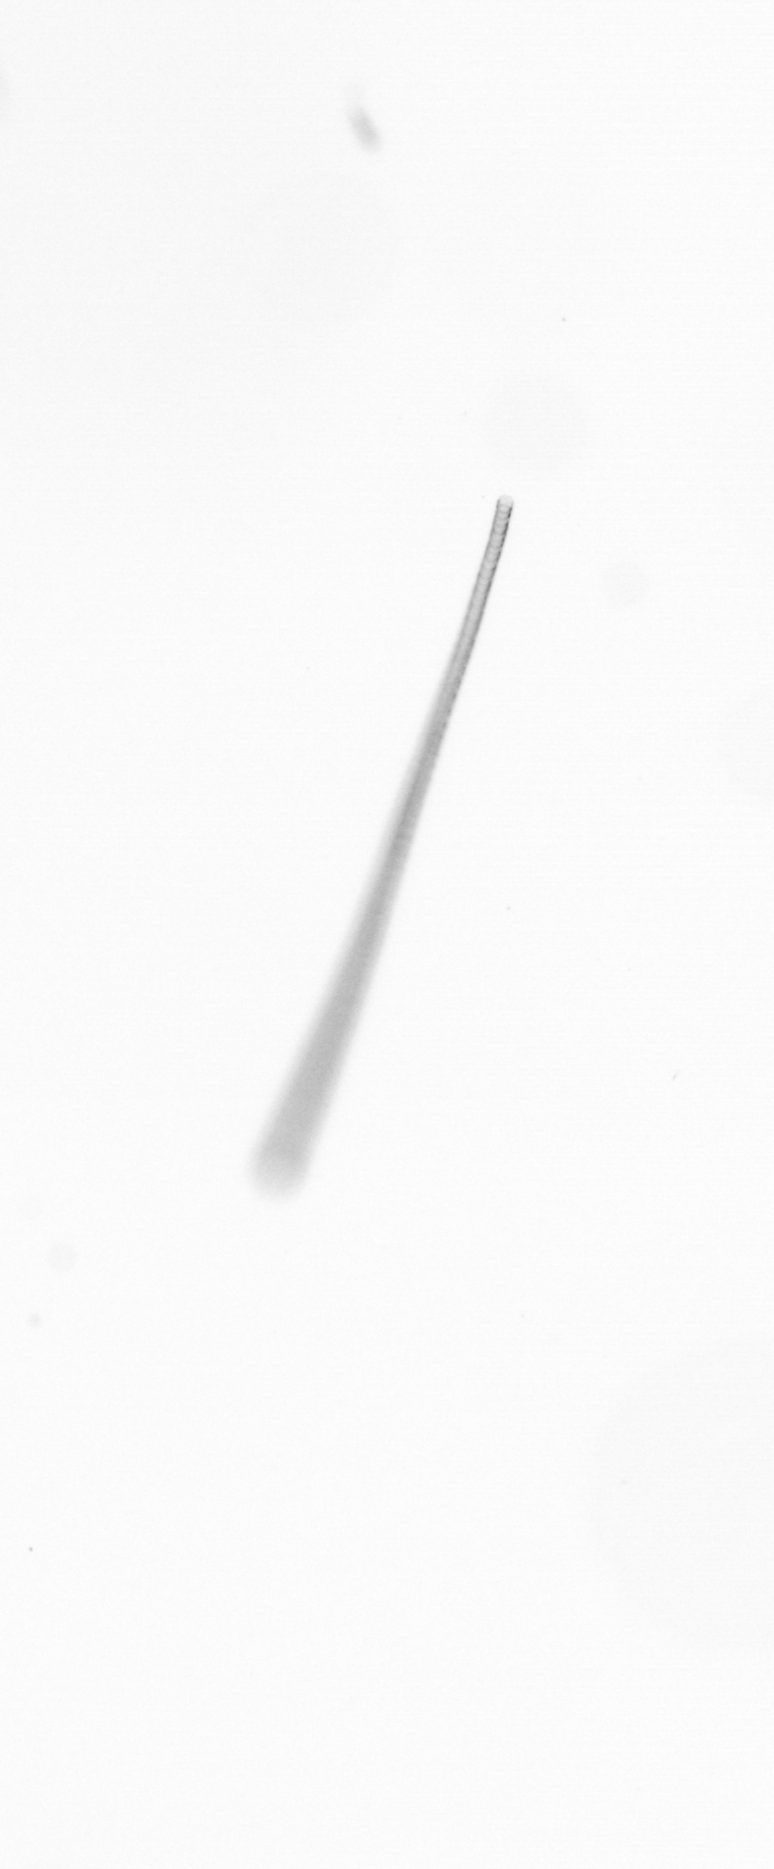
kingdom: Chromista
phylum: Ochrophyta
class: Bacillariophyceae
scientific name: Bacillariophyceae
